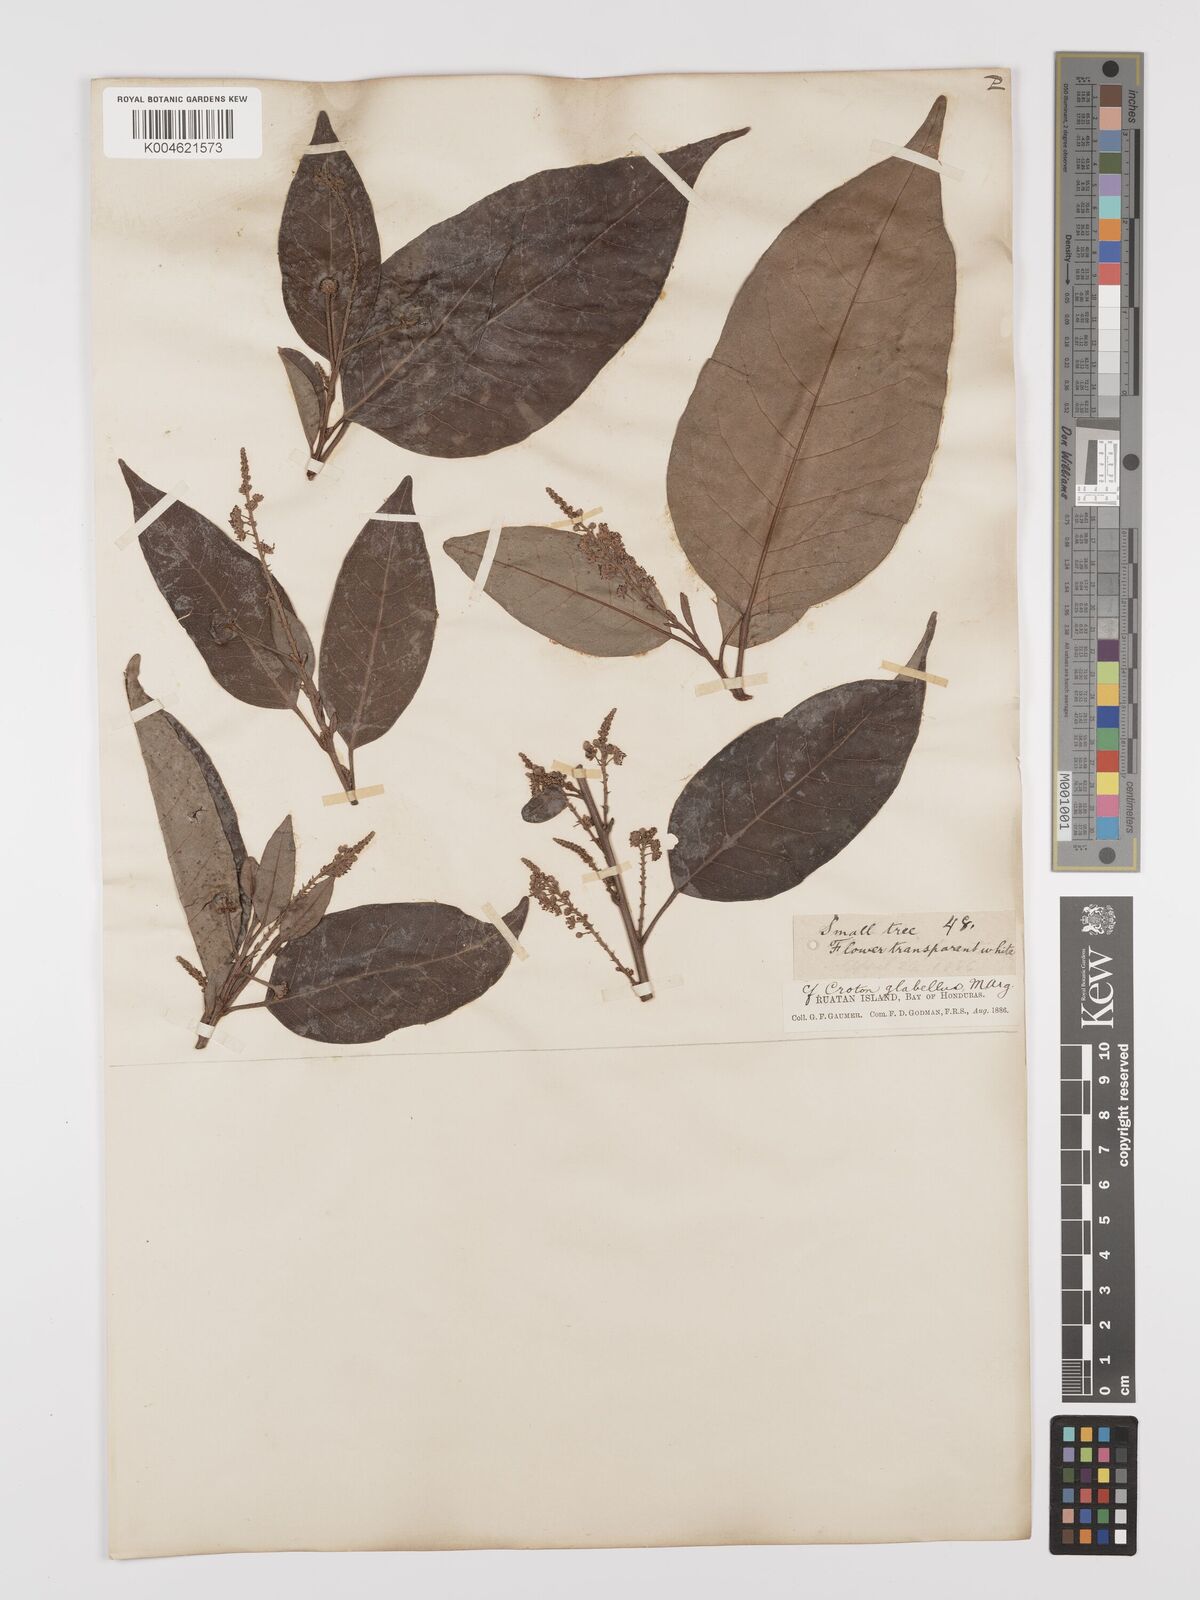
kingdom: Plantae
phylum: Tracheophyta
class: Magnoliopsida
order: Malpighiales
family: Euphorbiaceae
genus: Croton
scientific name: Croton glabellus
